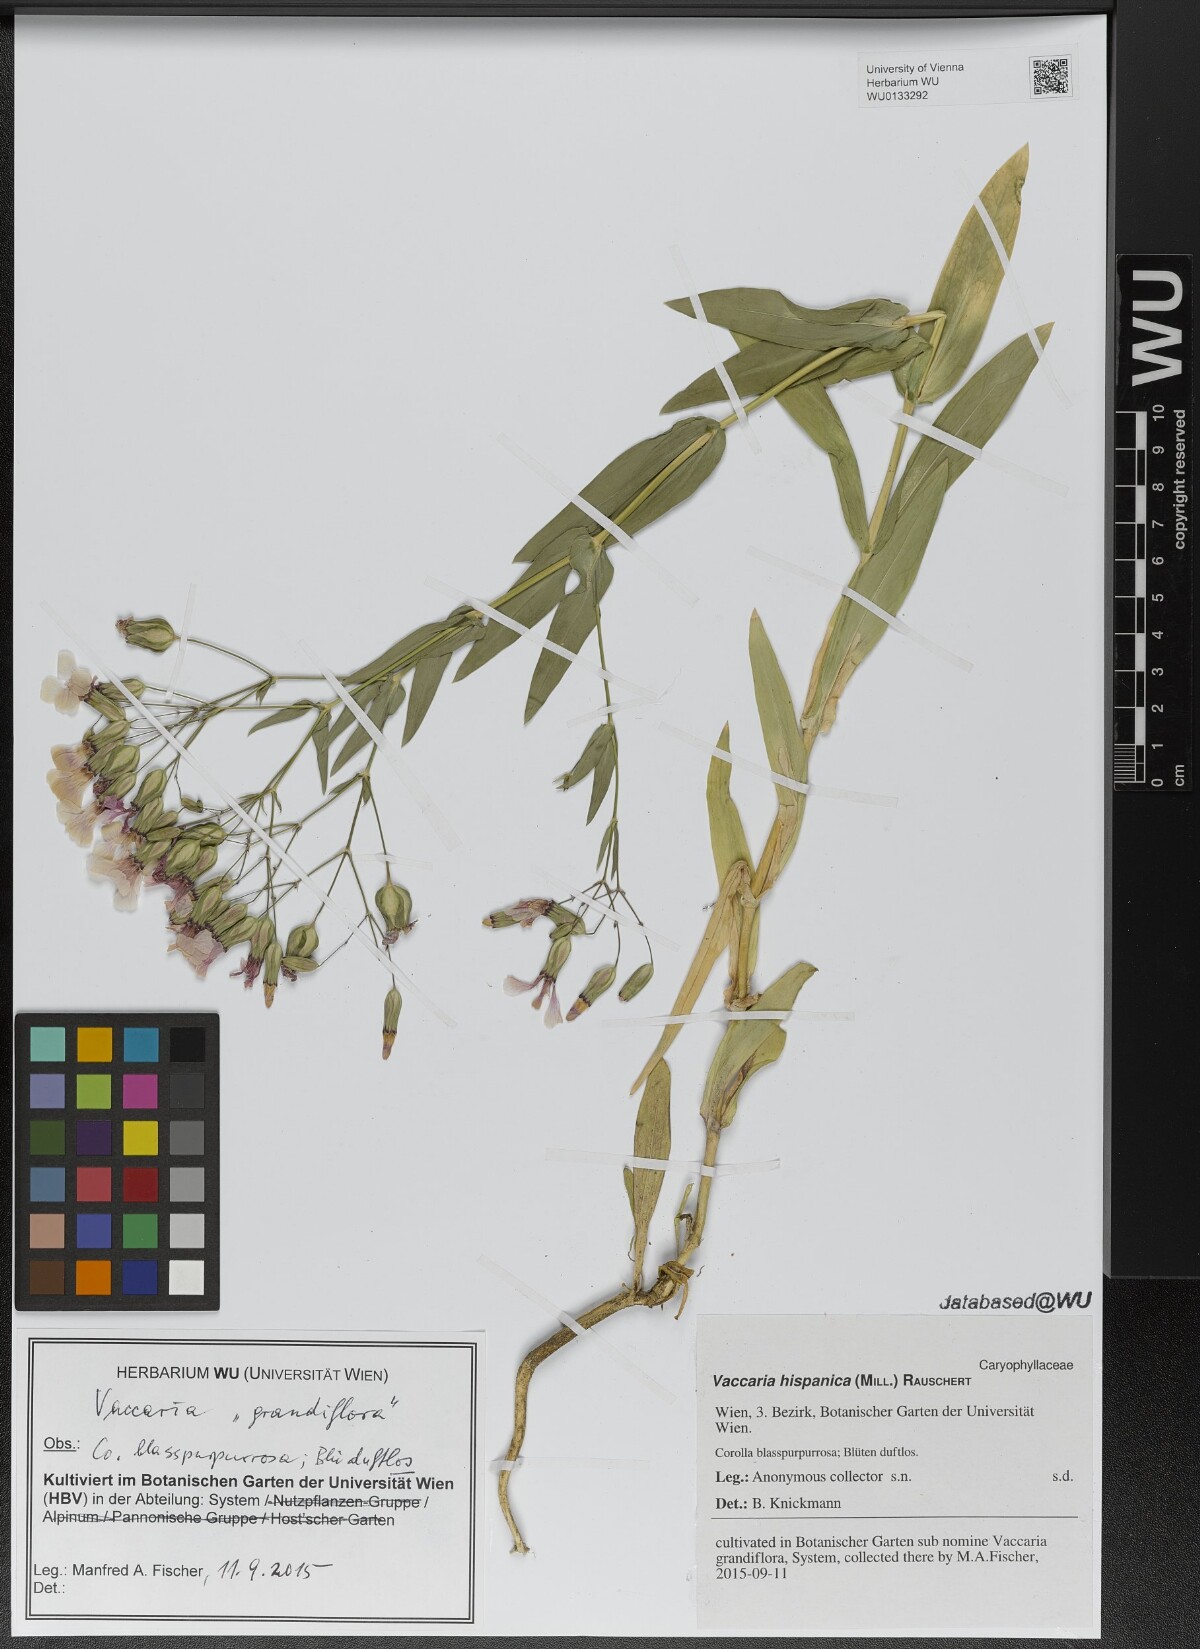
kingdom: Plantae
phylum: Tracheophyta
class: Magnoliopsida
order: Caryophyllales
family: Caryophyllaceae
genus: Gypsophila
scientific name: Gypsophila vaccaria
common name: Cow soapwort
